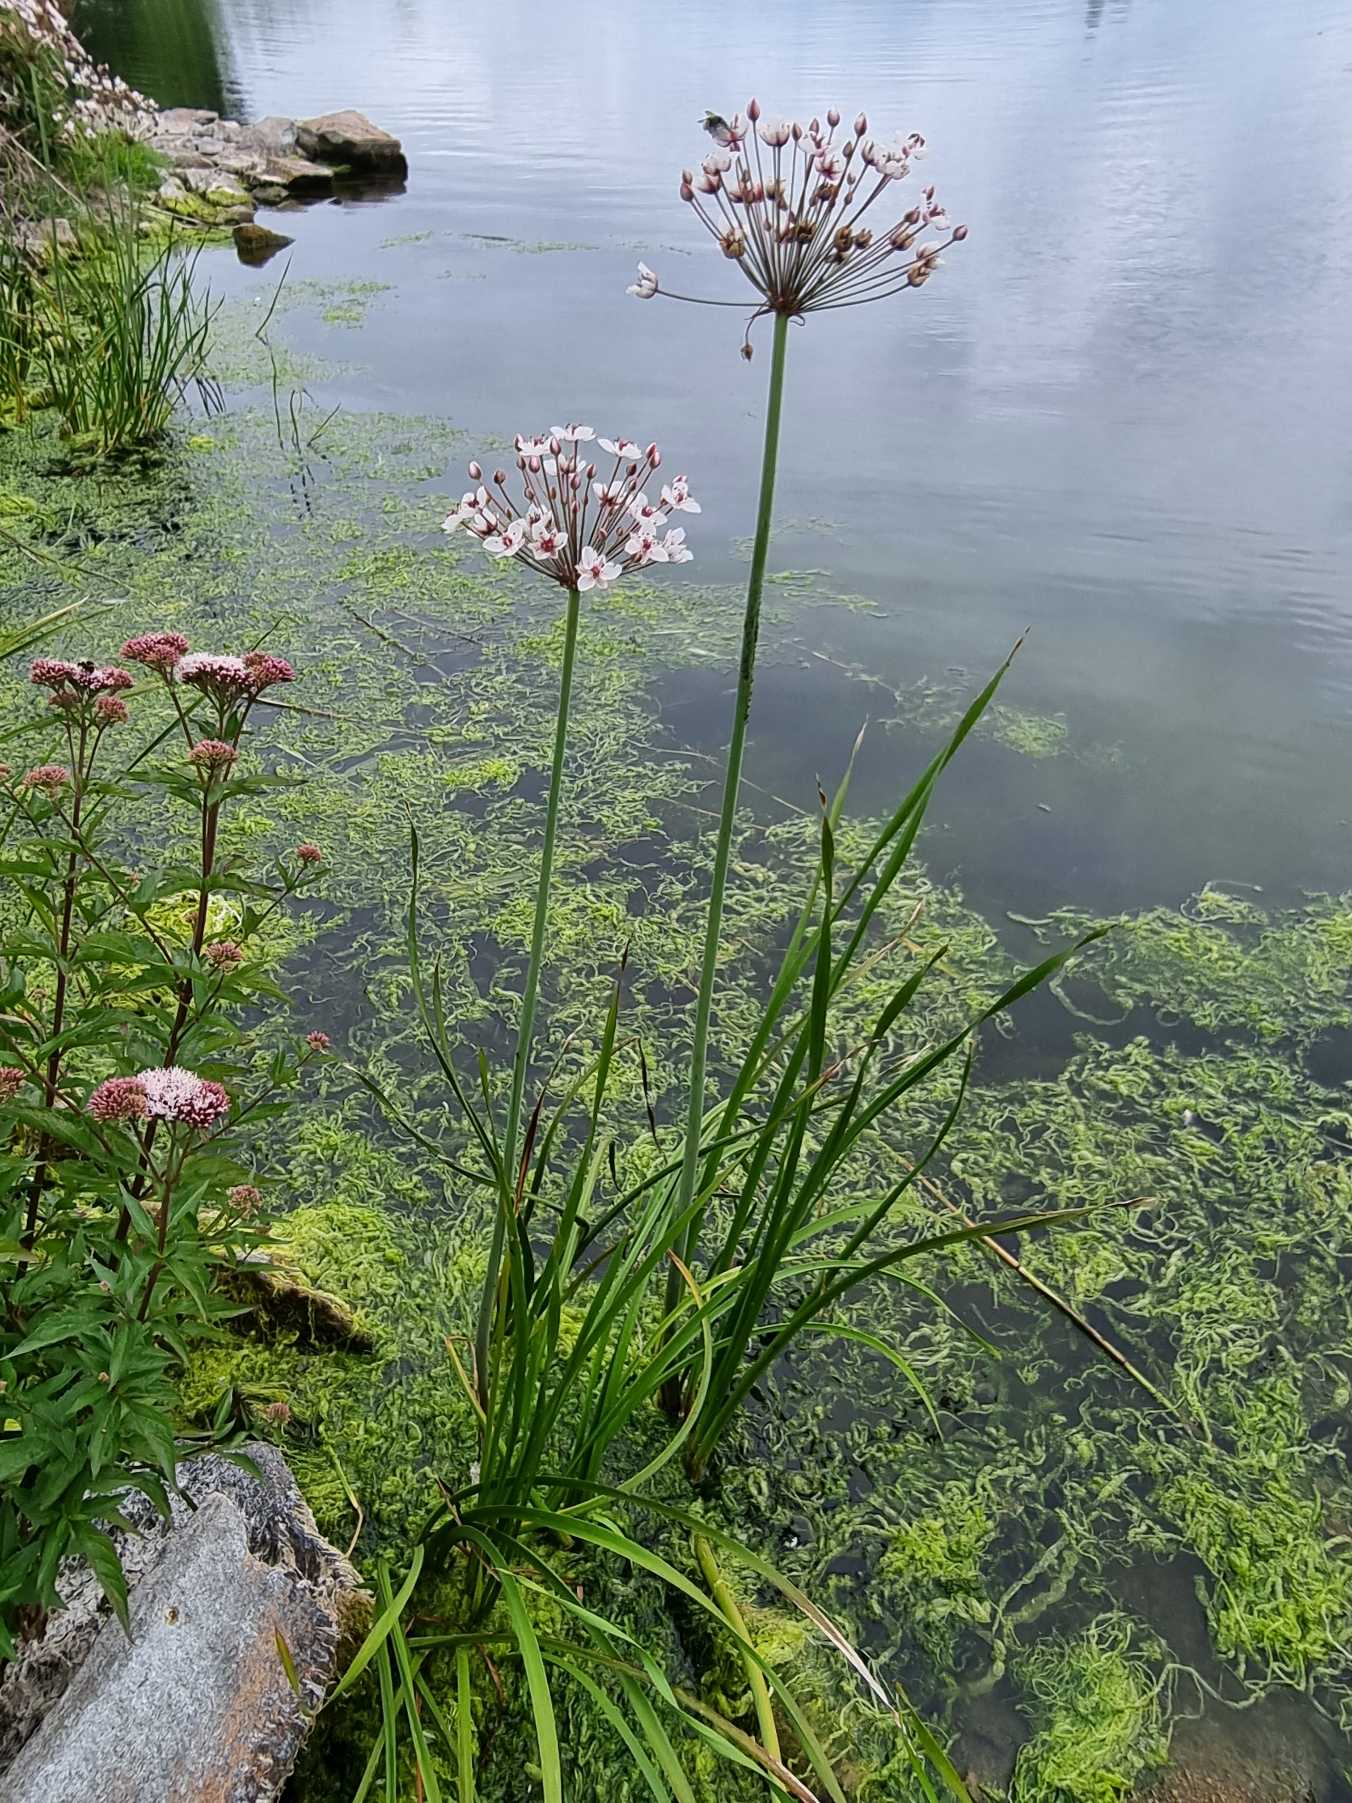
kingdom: Plantae
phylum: Tracheophyta
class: Liliopsida
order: Alismatales
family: Butomaceae
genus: Butomus
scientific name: Butomus umbellatus
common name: Brudelys
